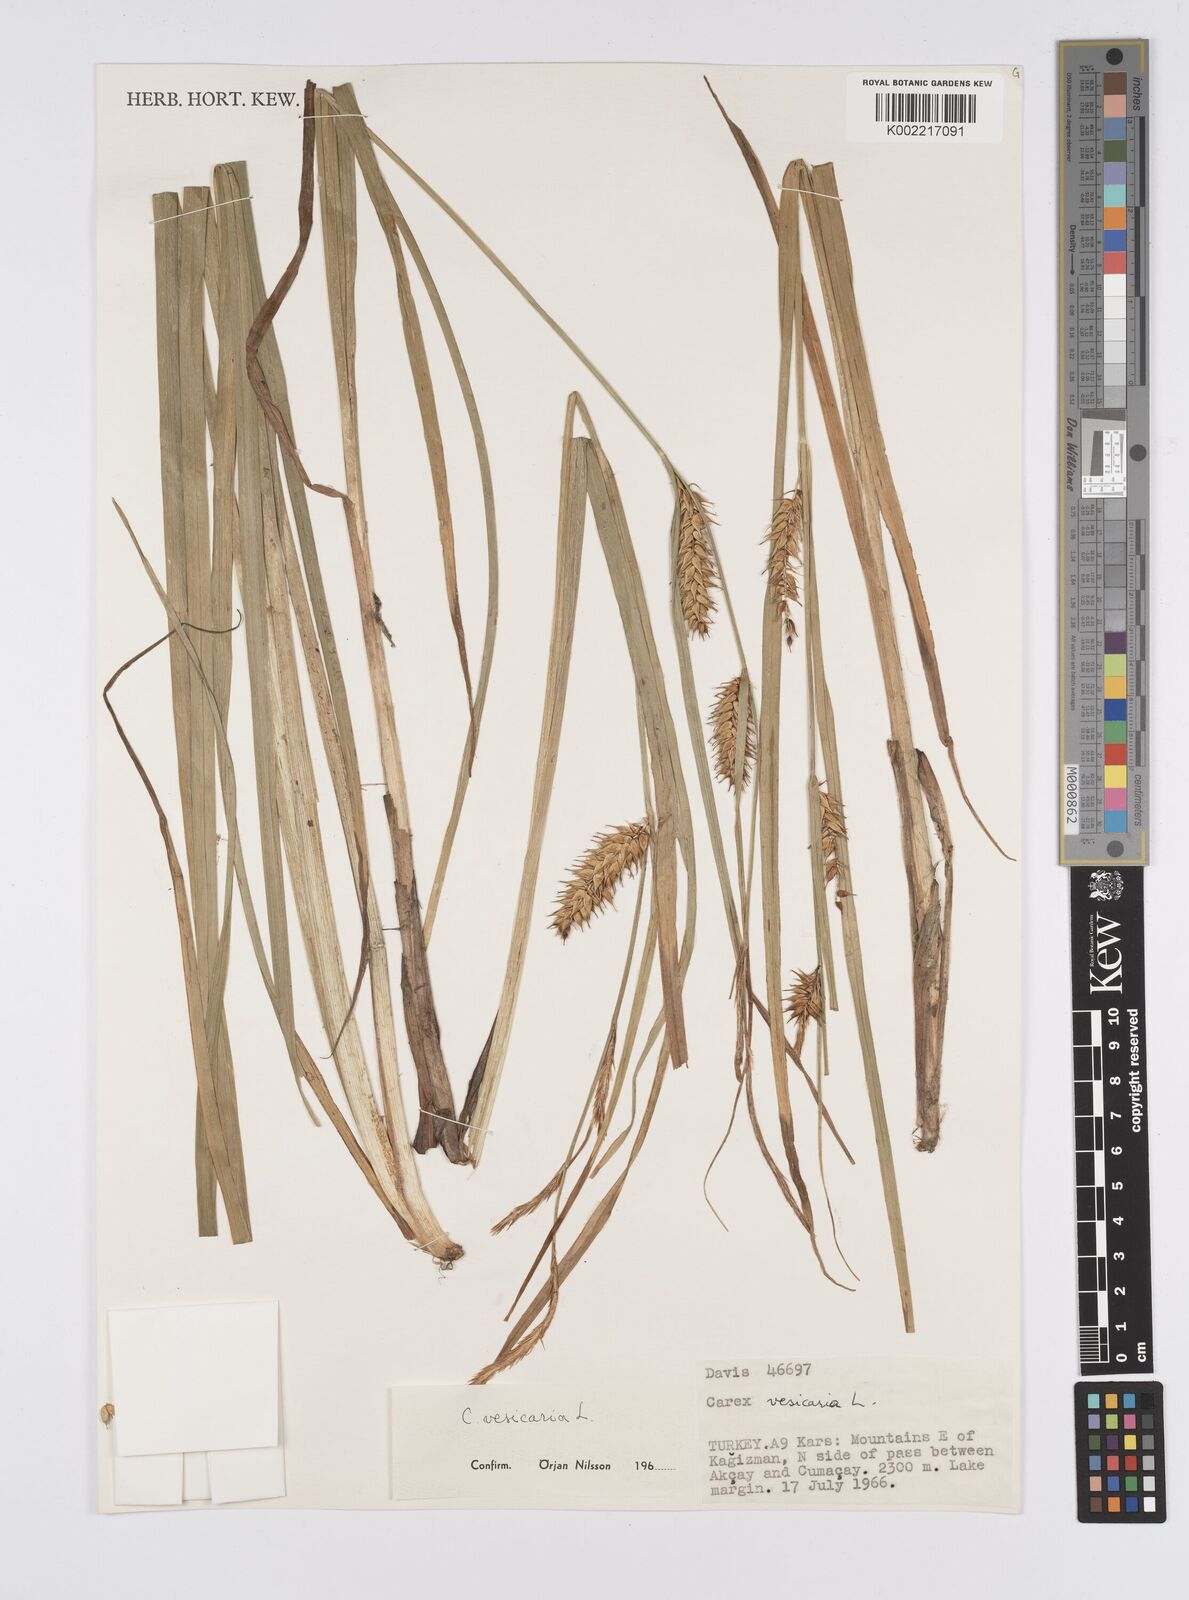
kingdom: Plantae
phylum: Tracheophyta
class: Liliopsida
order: Poales
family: Cyperaceae
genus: Carex
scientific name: Carex vesicaria
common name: Bladder-sedge
